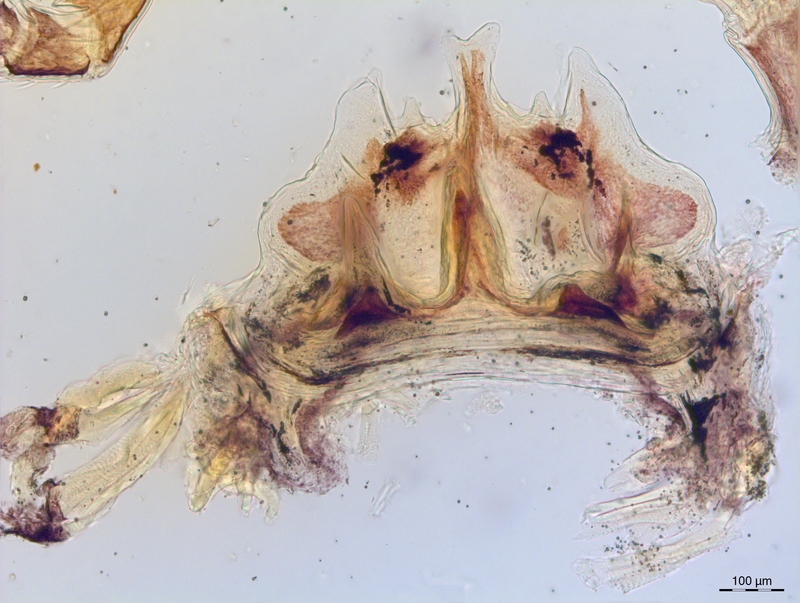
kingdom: Animalia
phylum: Arthropoda
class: Diplopoda
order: Chordeumatida
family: Craspedosomatidae
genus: Craspedosoma
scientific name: Craspedosoma alemannicum
